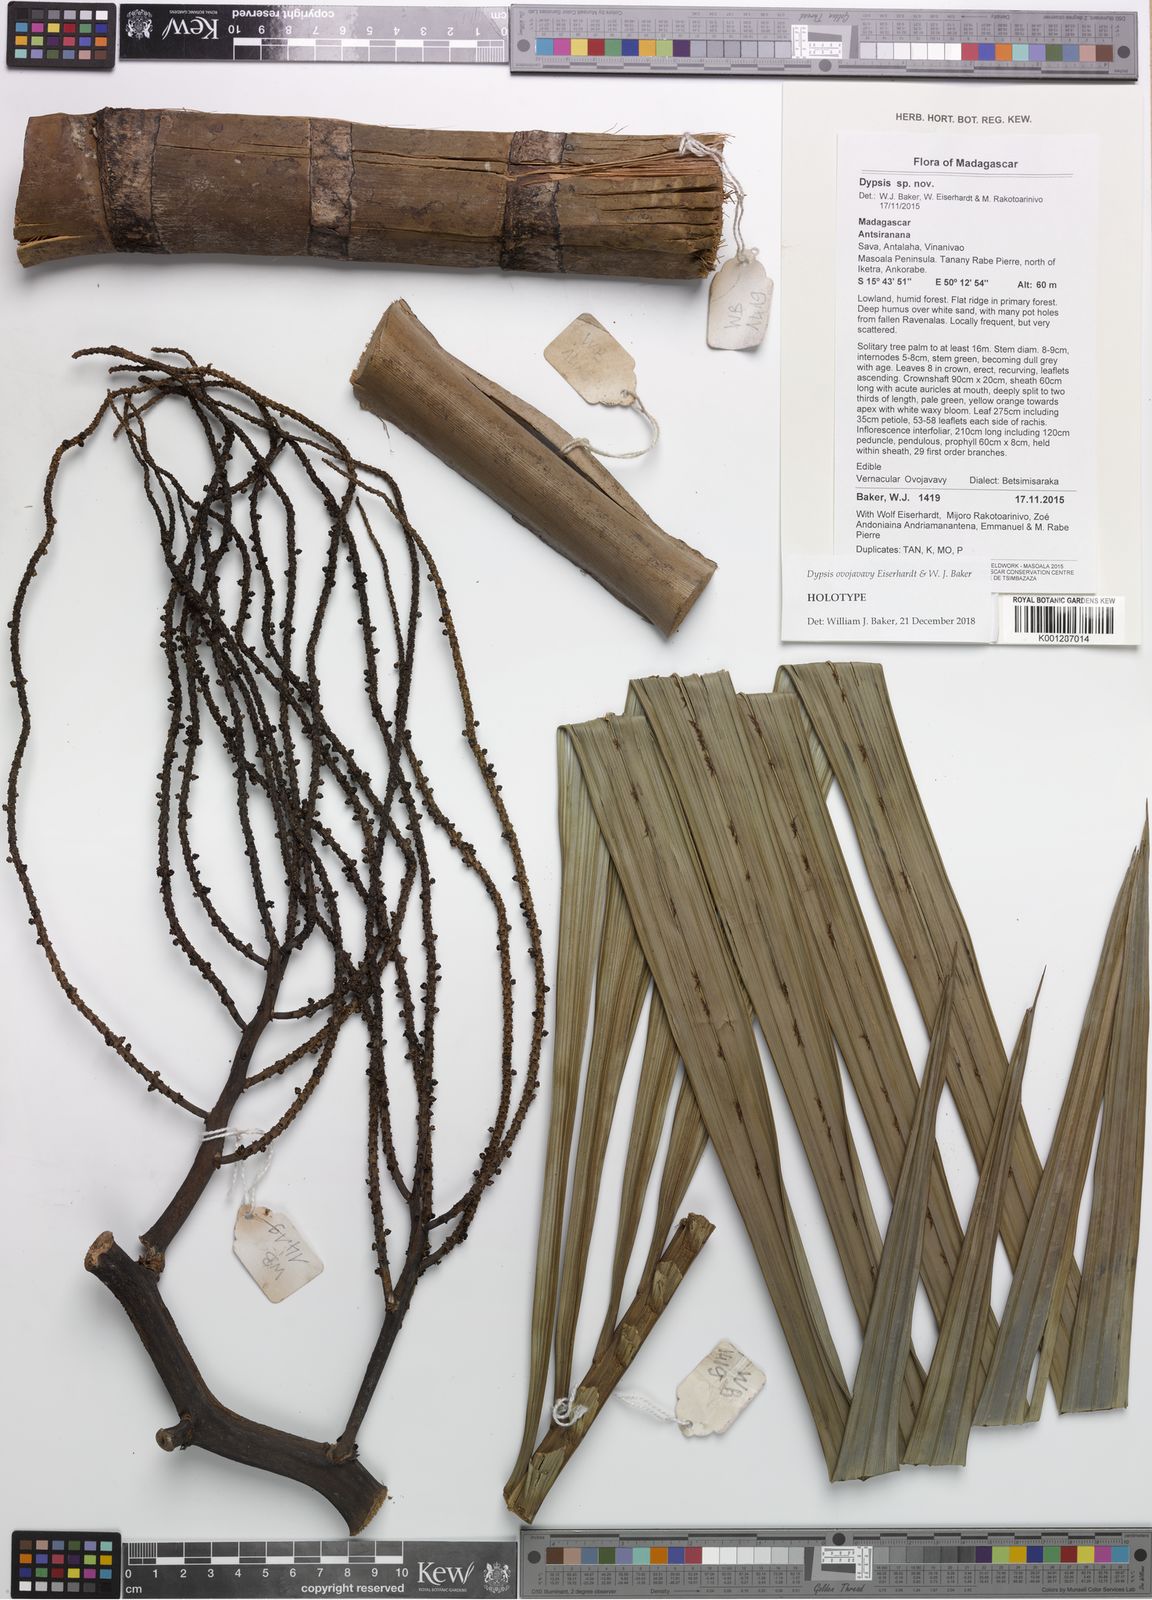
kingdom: Plantae
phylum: Tracheophyta
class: Liliopsida
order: Arecales
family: Arecaceae
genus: Dypsis
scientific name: Dypsis ovojavavy
